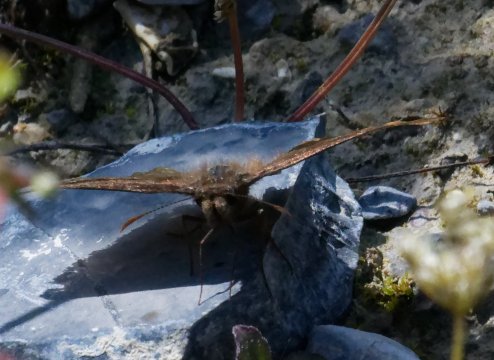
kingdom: Animalia
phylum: Arthropoda
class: Insecta
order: Lepidoptera
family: Hesperiidae
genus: Gesta
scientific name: Gesta
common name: Wild Indigo Duskywing
